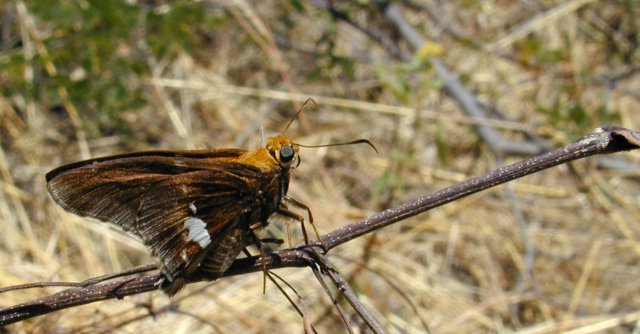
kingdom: Animalia
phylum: Arthropoda
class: Insecta
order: Lepidoptera
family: Hesperiidae
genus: Epargyreus
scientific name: Epargyreus windi
